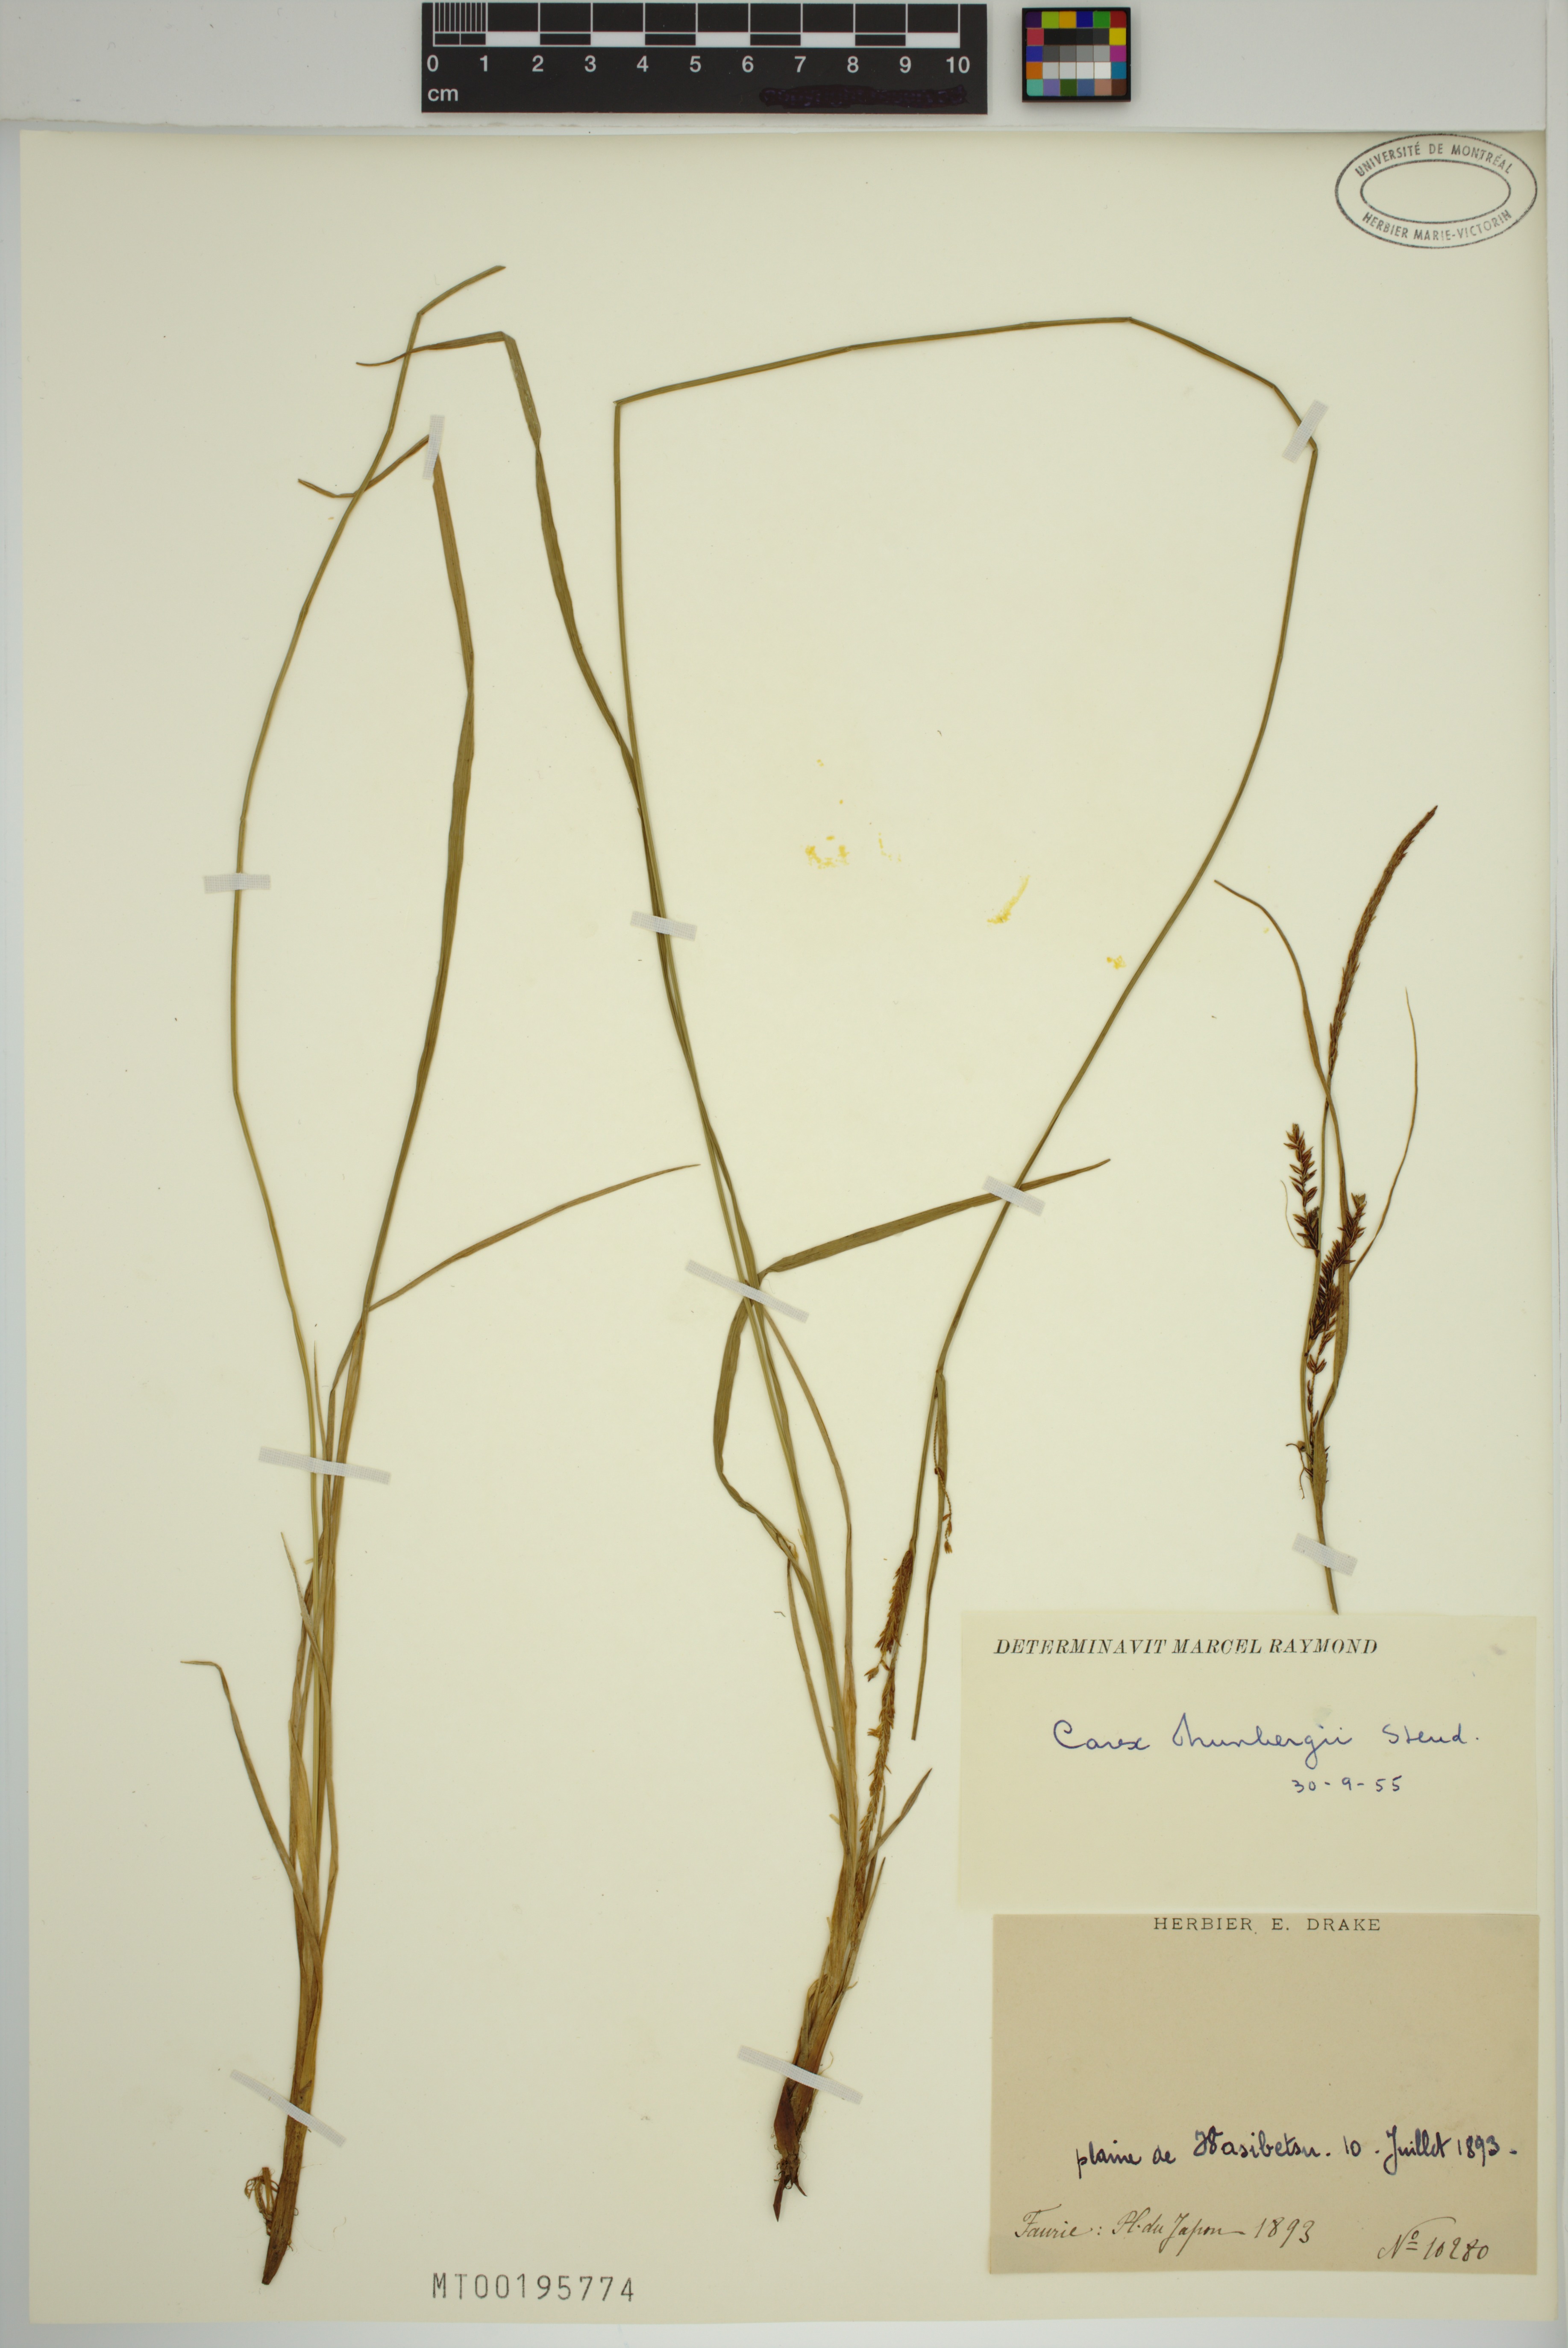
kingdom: Plantae
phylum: Tracheophyta
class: Liliopsida
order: Poales
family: Cyperaceae
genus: Carex
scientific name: Carex thunbergii
